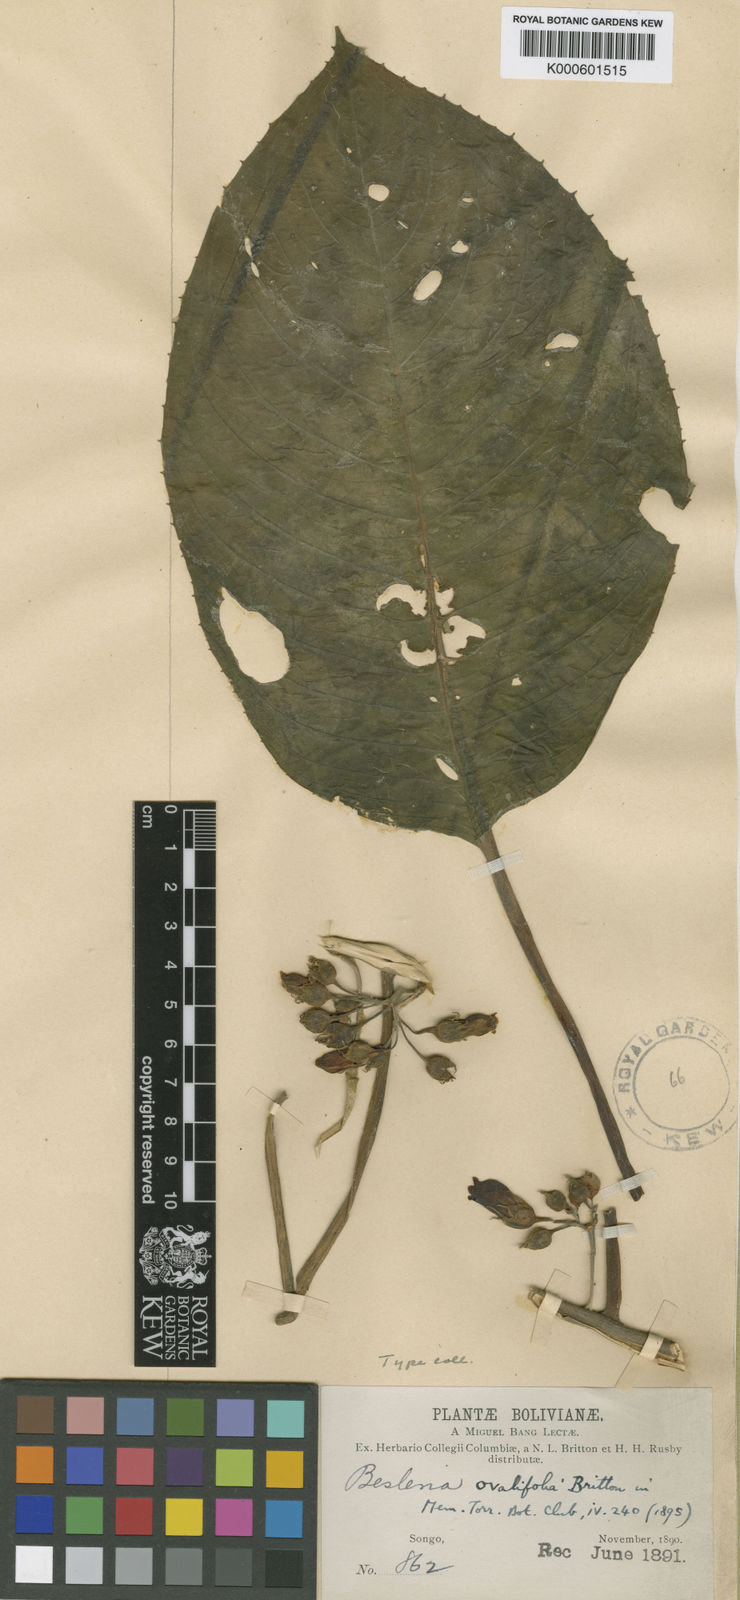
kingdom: Plantae
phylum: Tracheophyta
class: Magnoliopsida
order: Lamiales
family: Gesneriaceae
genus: Besleria
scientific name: Besleria ovalifolia
